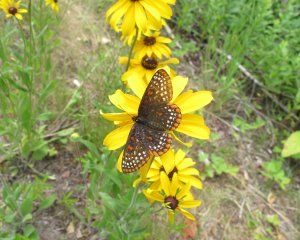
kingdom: Animalia
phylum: Arthropoda
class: Insecta
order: Lepidoptera
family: Nymphalidae
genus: Euphydryas
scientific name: Euphydryas phaeton
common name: Baltimore Checkerspot
